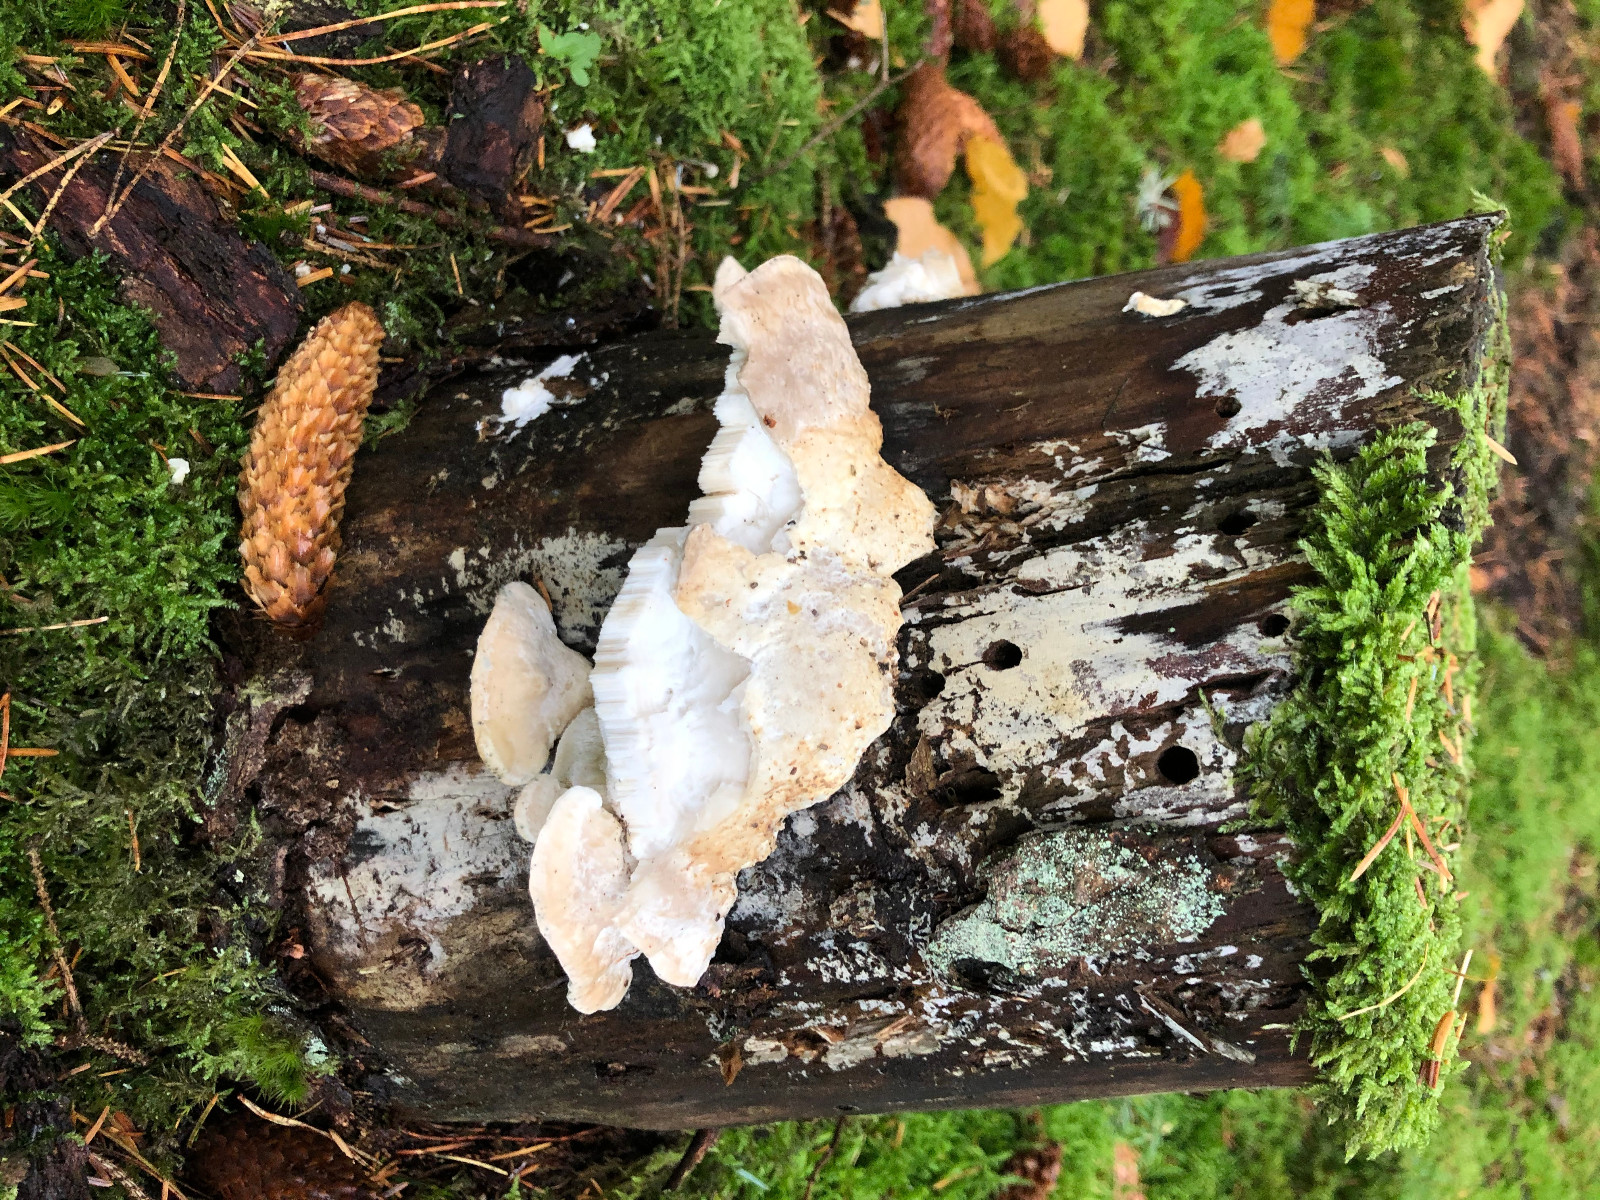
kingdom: Fungi
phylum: Basidiomycota
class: Agaricomycetes
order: Polyporales
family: Fomitopsidaceae
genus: Climacocystis
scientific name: Climacocystis borealis
